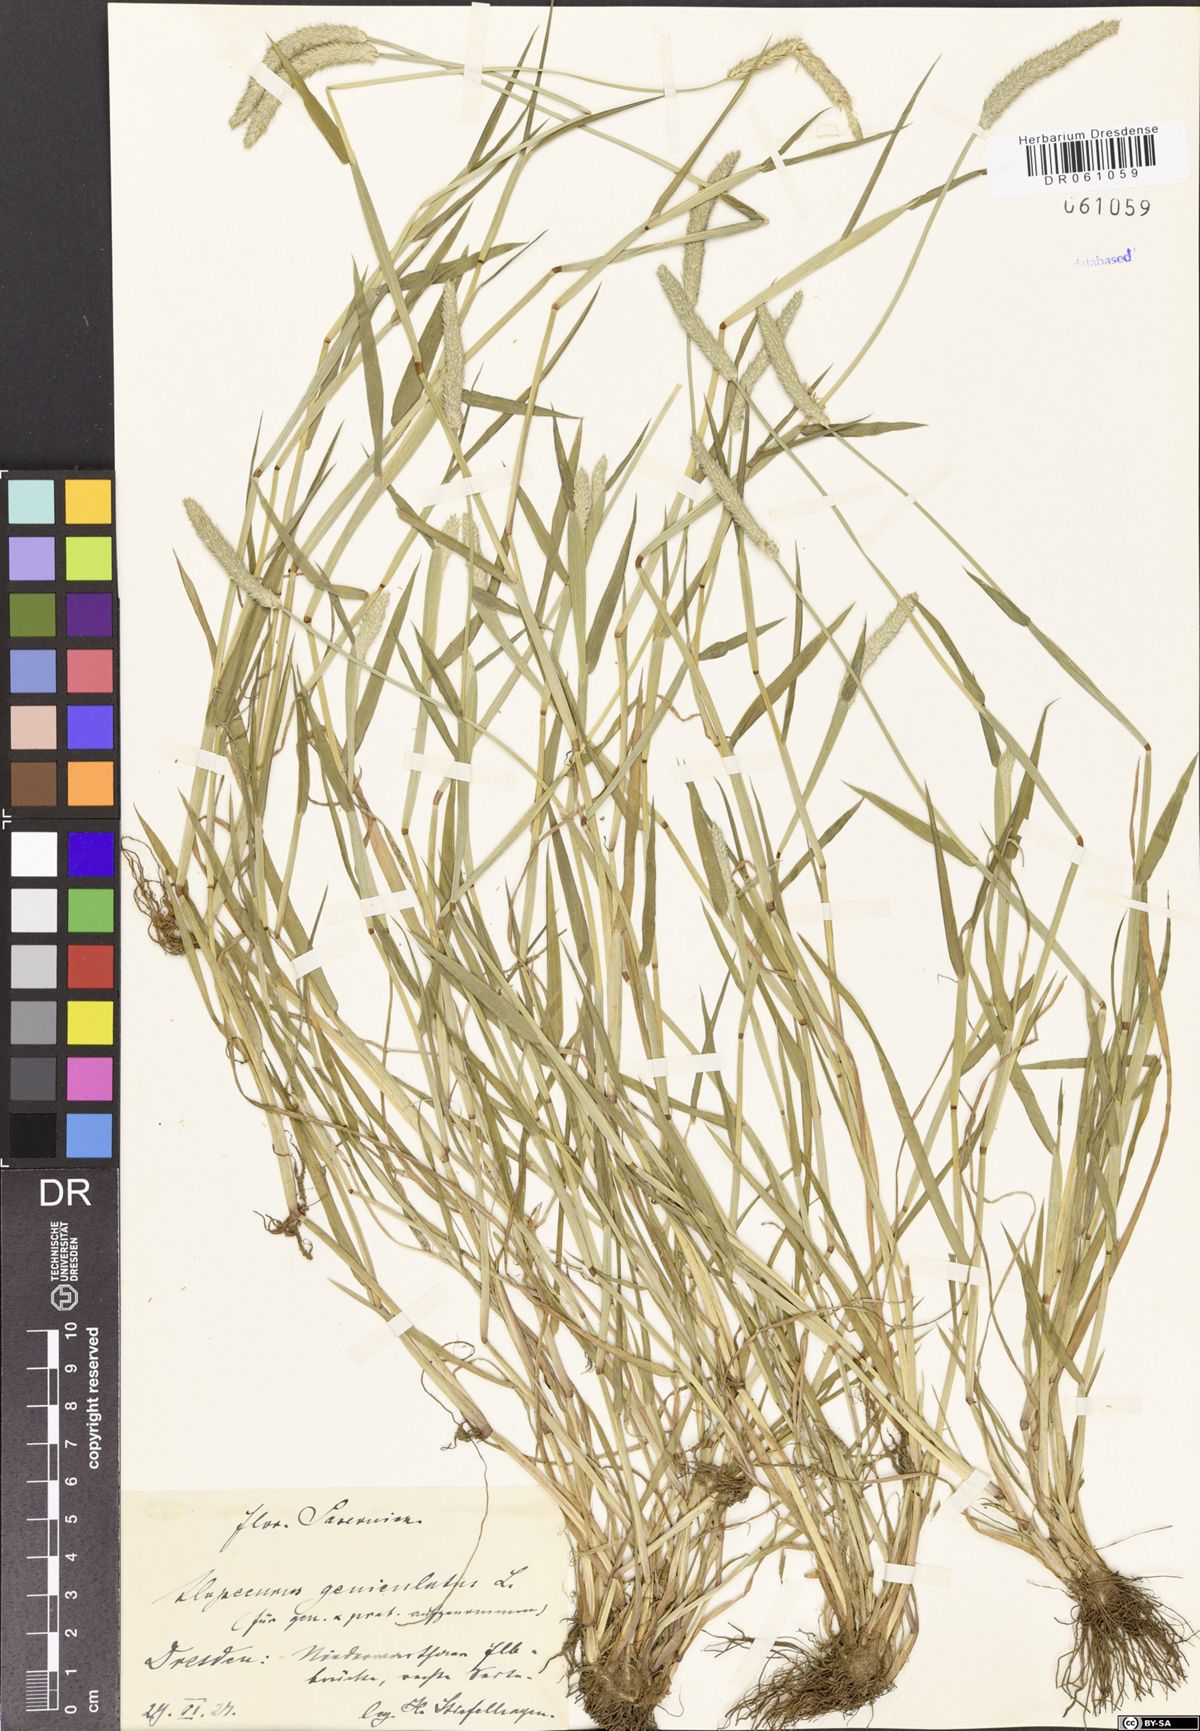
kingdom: Plantae
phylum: Tracheophyta
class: Liliopsida
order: Poales
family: Poaceae
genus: Alopecurus
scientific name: Alopecurus geniculatus
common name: Water foxtail
